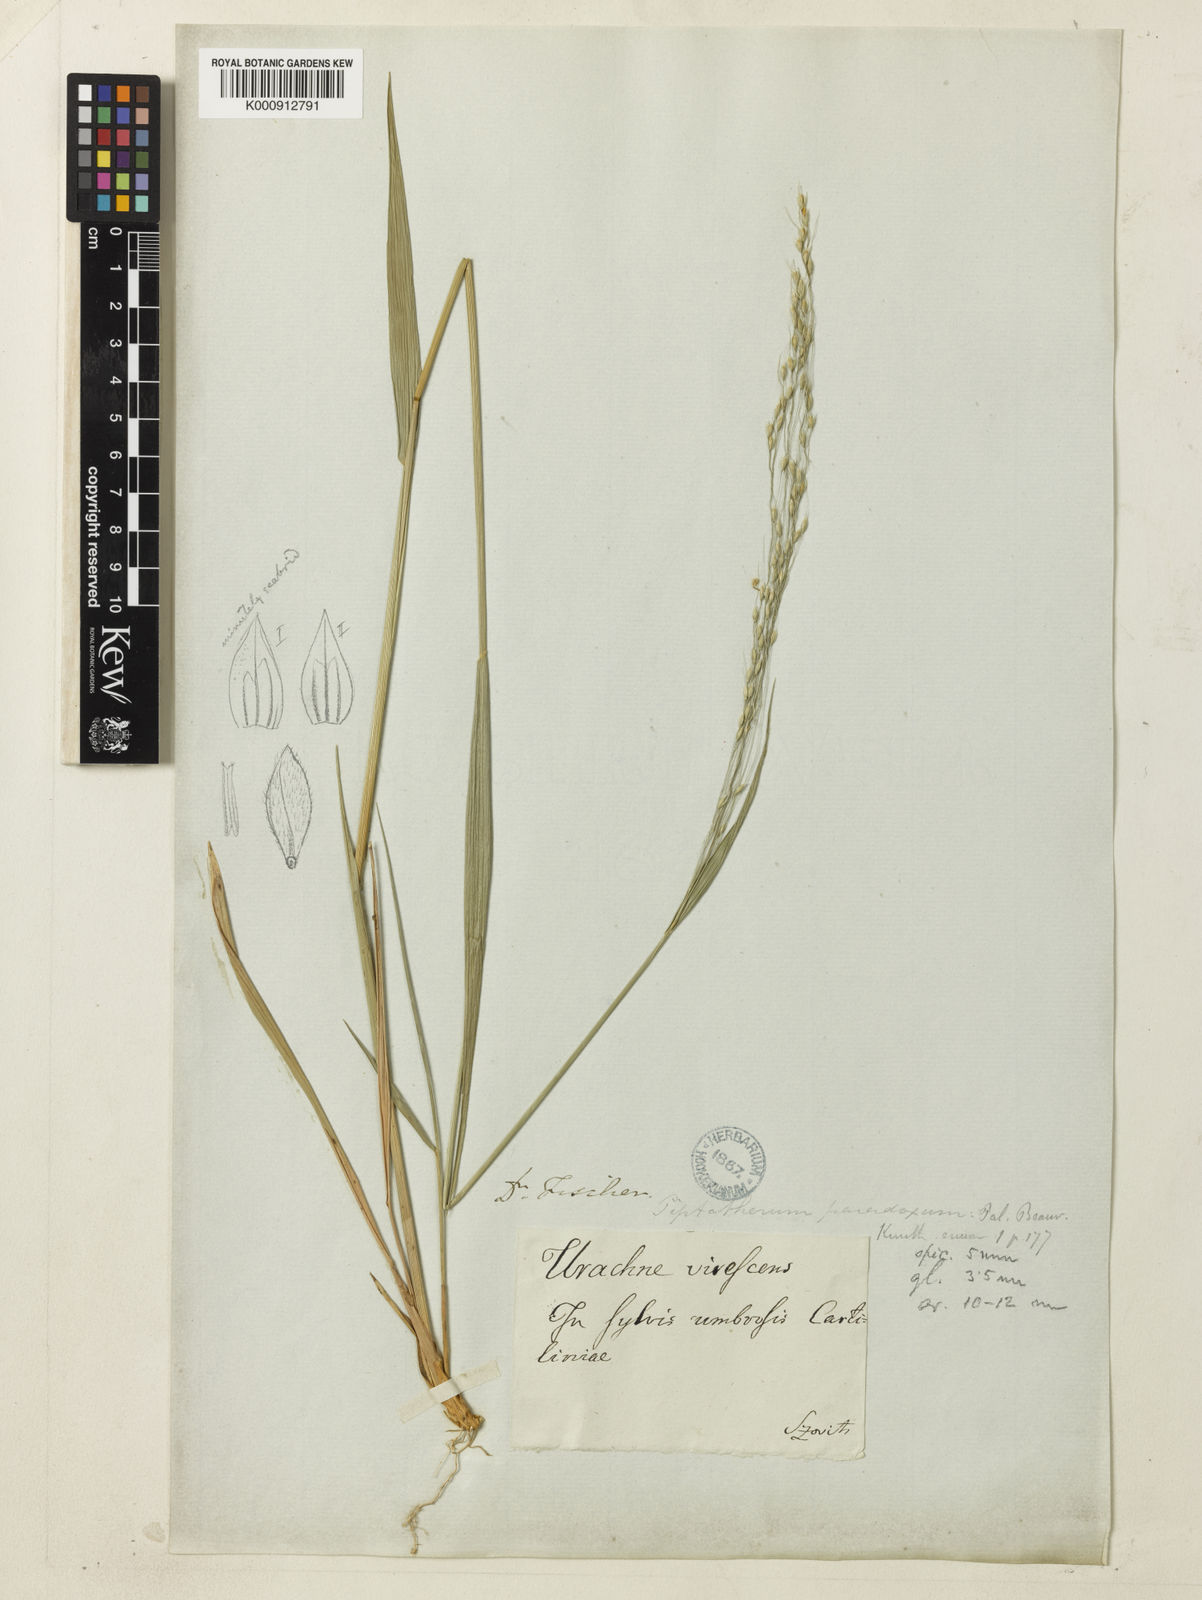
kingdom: Plantae
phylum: Tracheophyta
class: Liliopsida
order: Poales
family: Poaceae
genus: Achnatherum
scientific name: Achnatherum virescens
